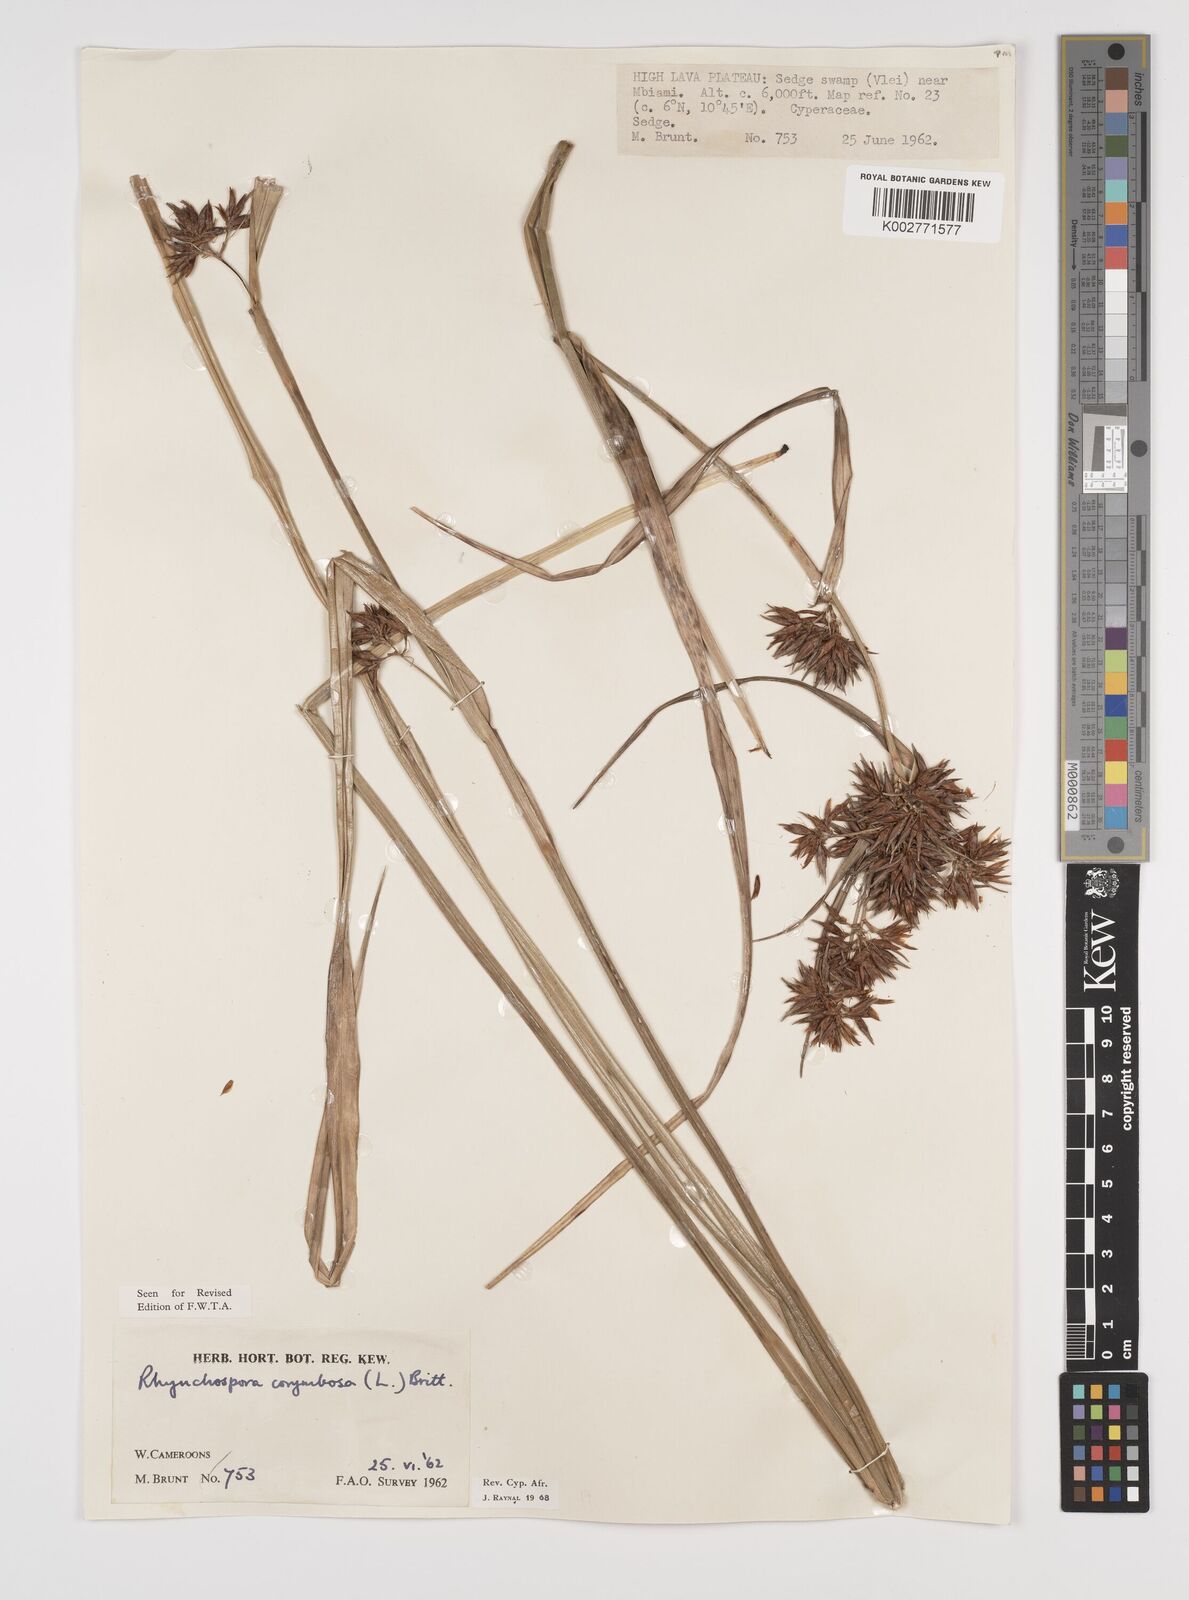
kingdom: Plantae
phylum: Tracheophyta
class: Liliopsida
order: Poales
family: Cyperaceae
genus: Rhynchospora
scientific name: Rhynchospora corymbosa
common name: Golden beak sedge
